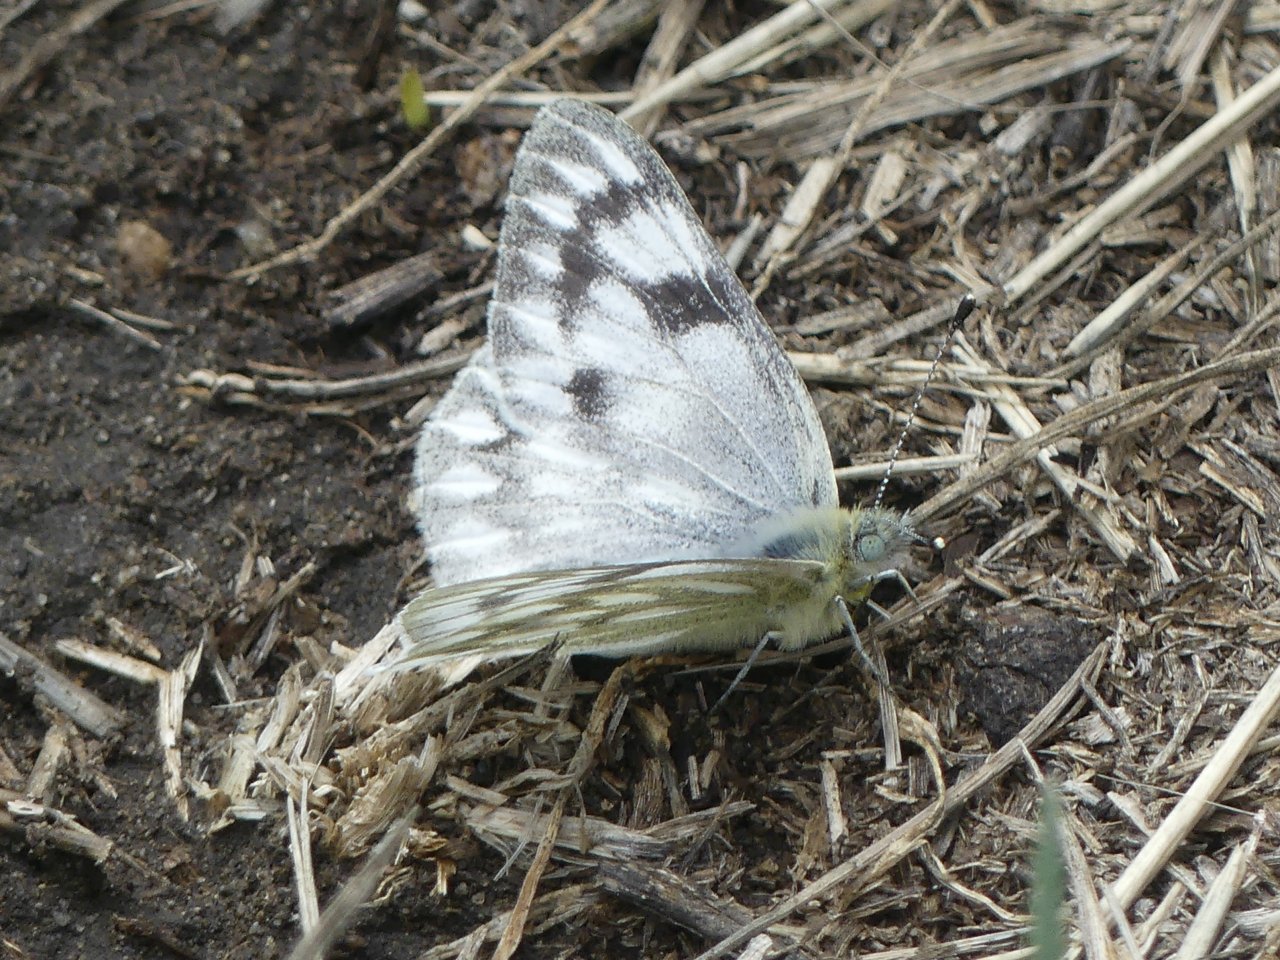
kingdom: Animalia
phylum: Arthropoda
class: Insecta
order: Lepidoptera
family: Pieridae
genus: Pontia
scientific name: Pontia occidentalis
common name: Western White
